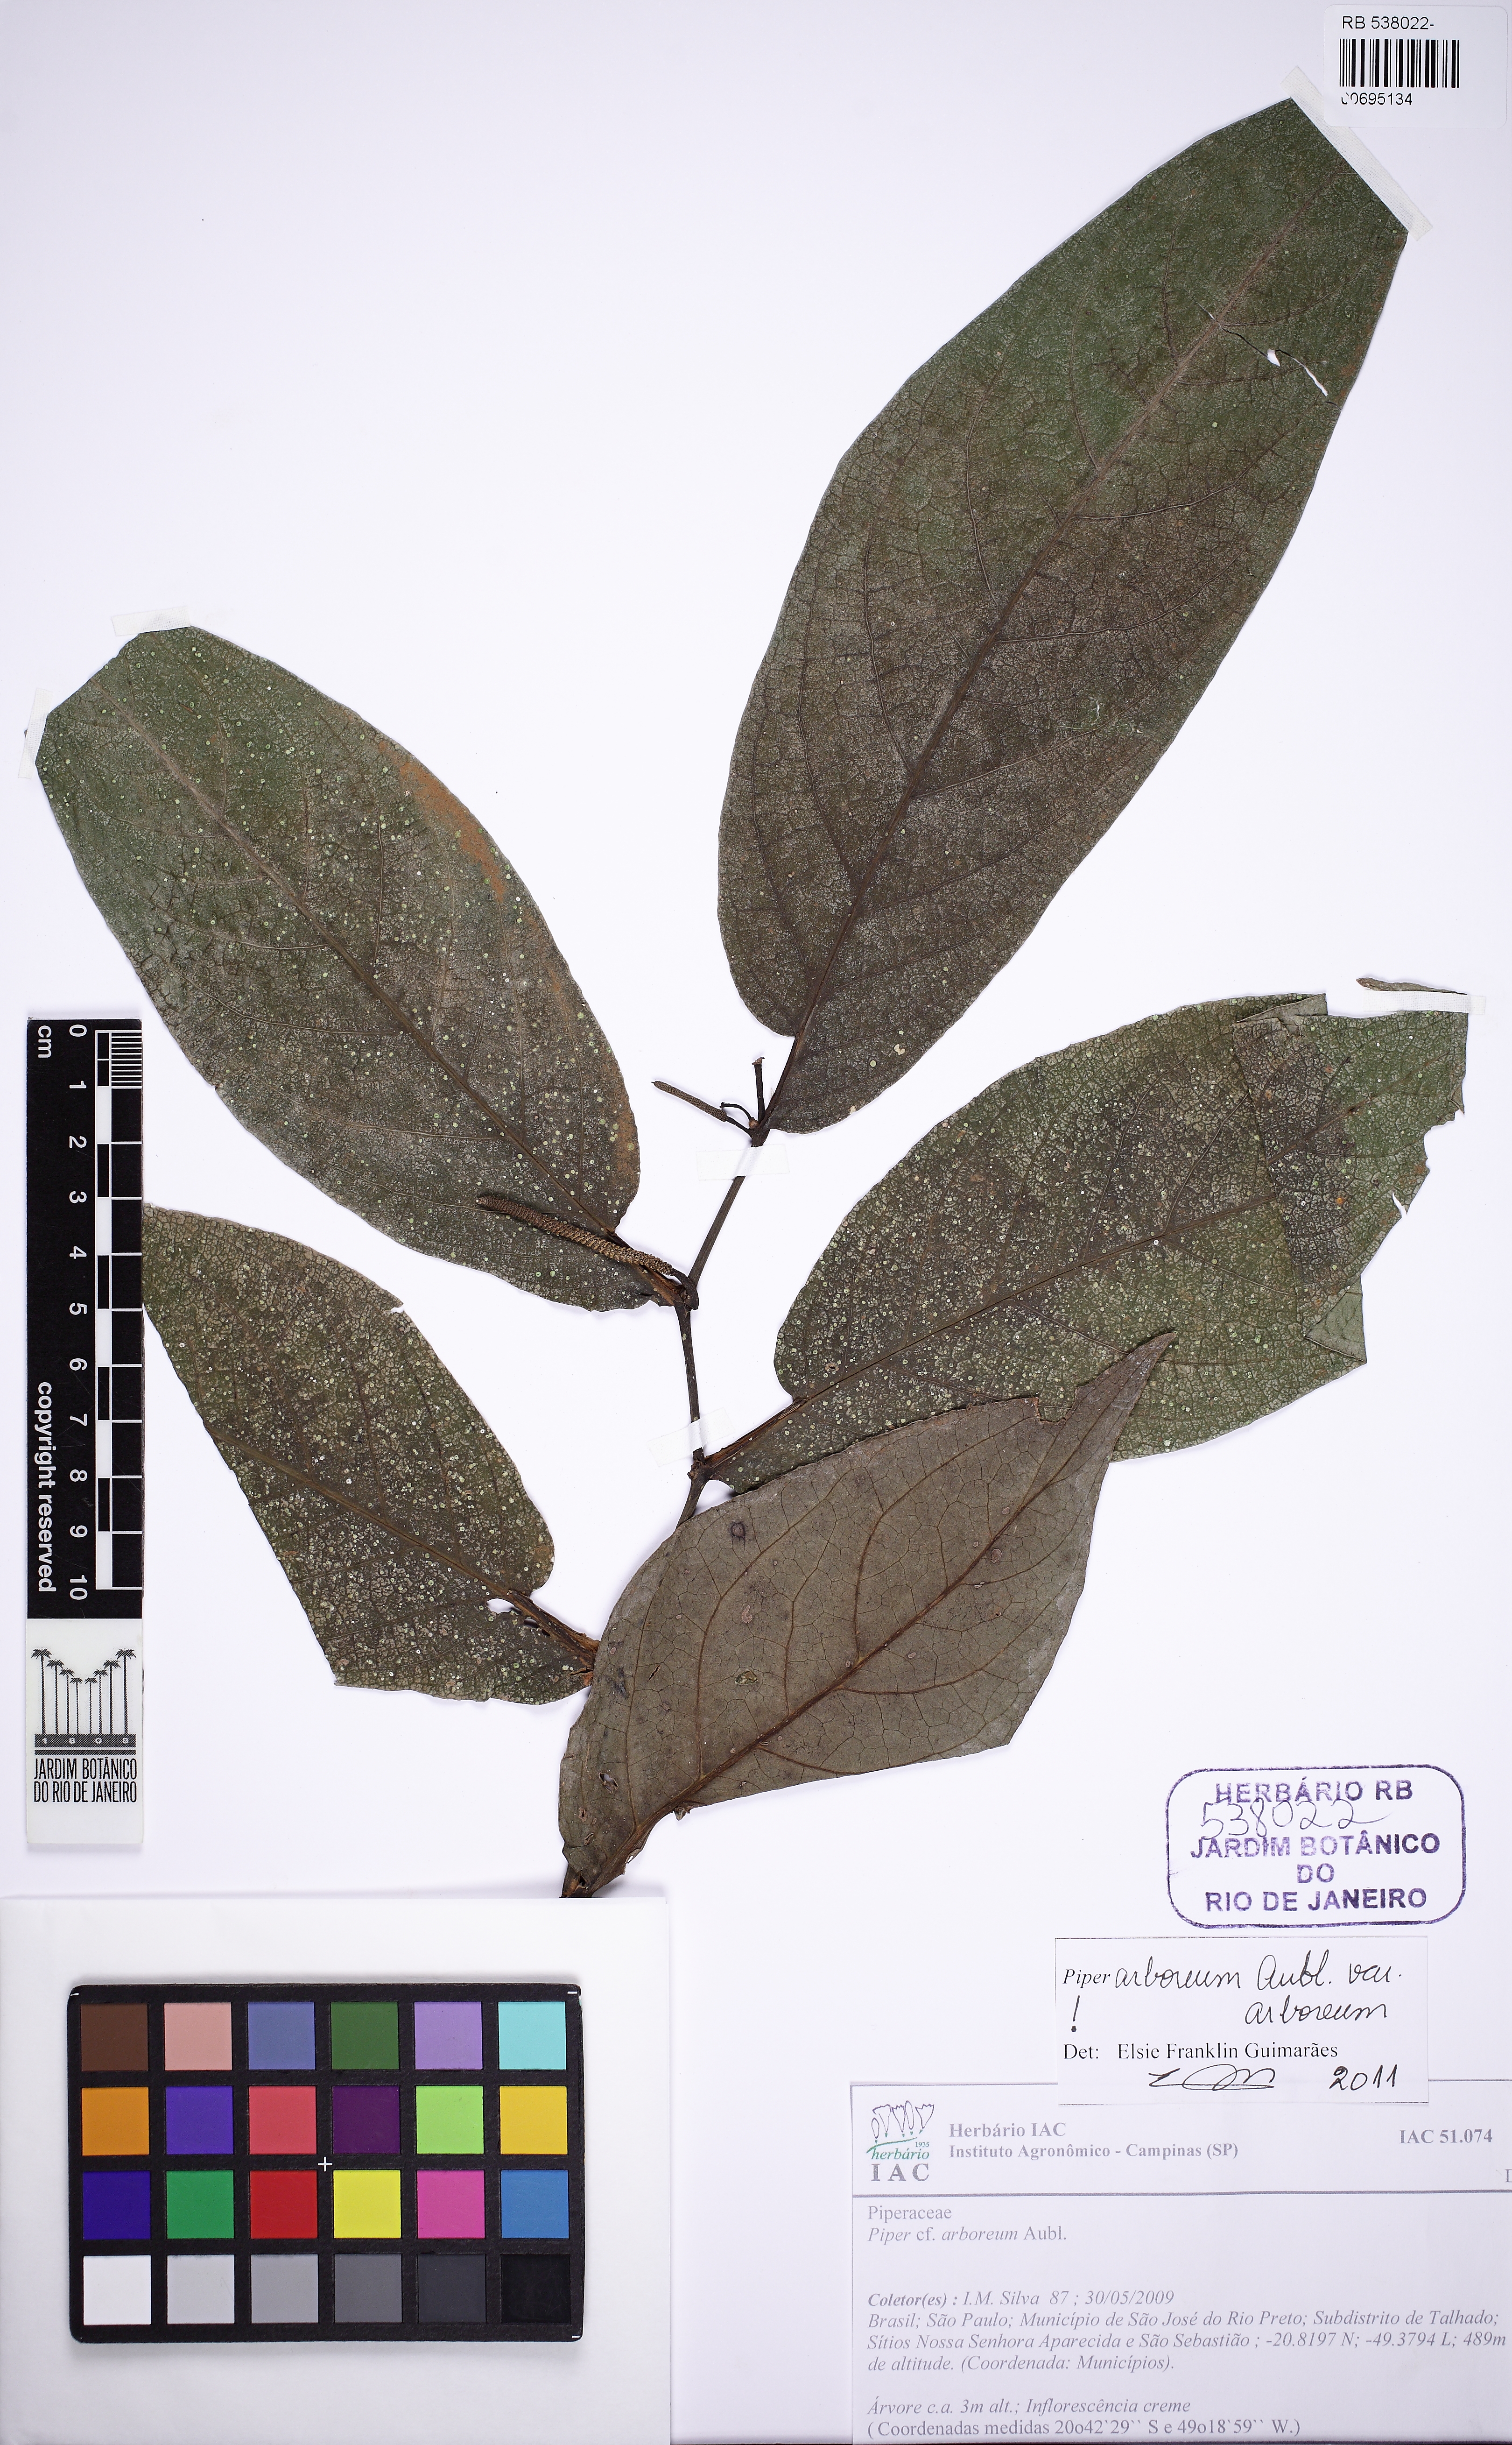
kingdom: Plantae
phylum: Tracheophyta
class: Magnoliopsida
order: Piperales
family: Piperaceae
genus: Piper
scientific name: Piper arboreum
